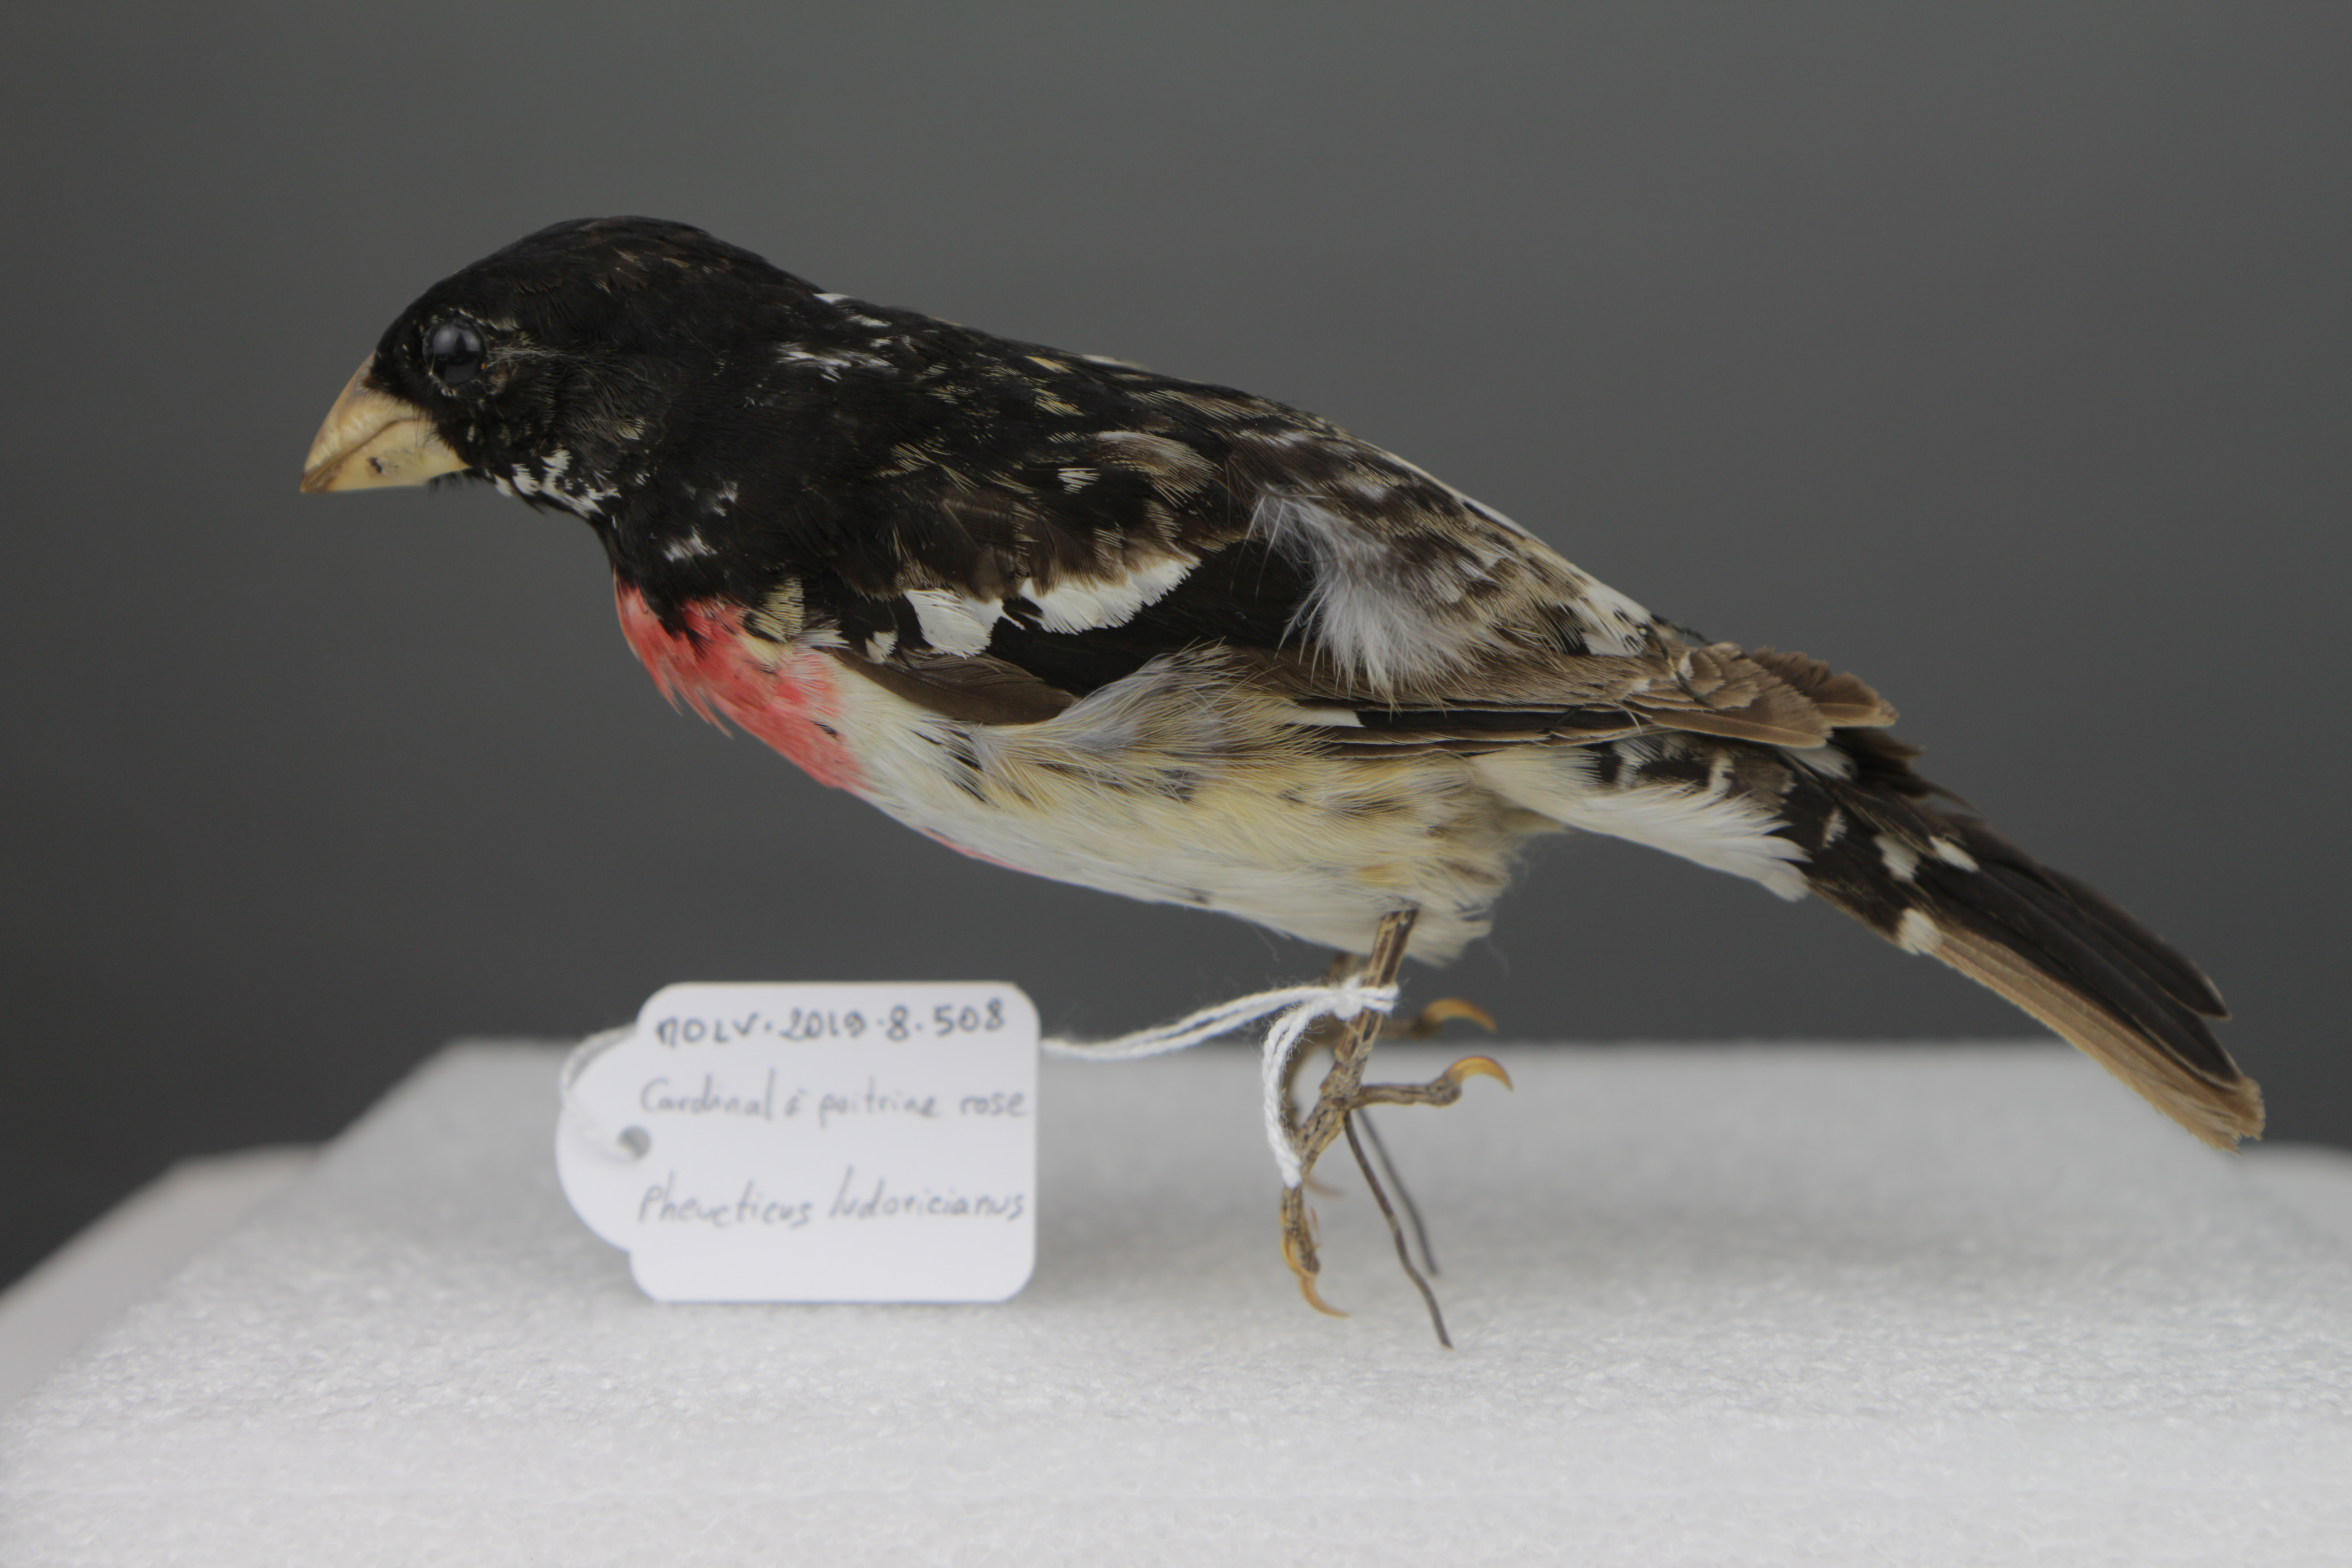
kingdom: Animalia
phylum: Chordata
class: Aves
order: Passeriformes
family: Cardinalidae
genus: Pheucticus
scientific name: Pheucticus ludovicianus
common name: Rose-breasted grosbeak
